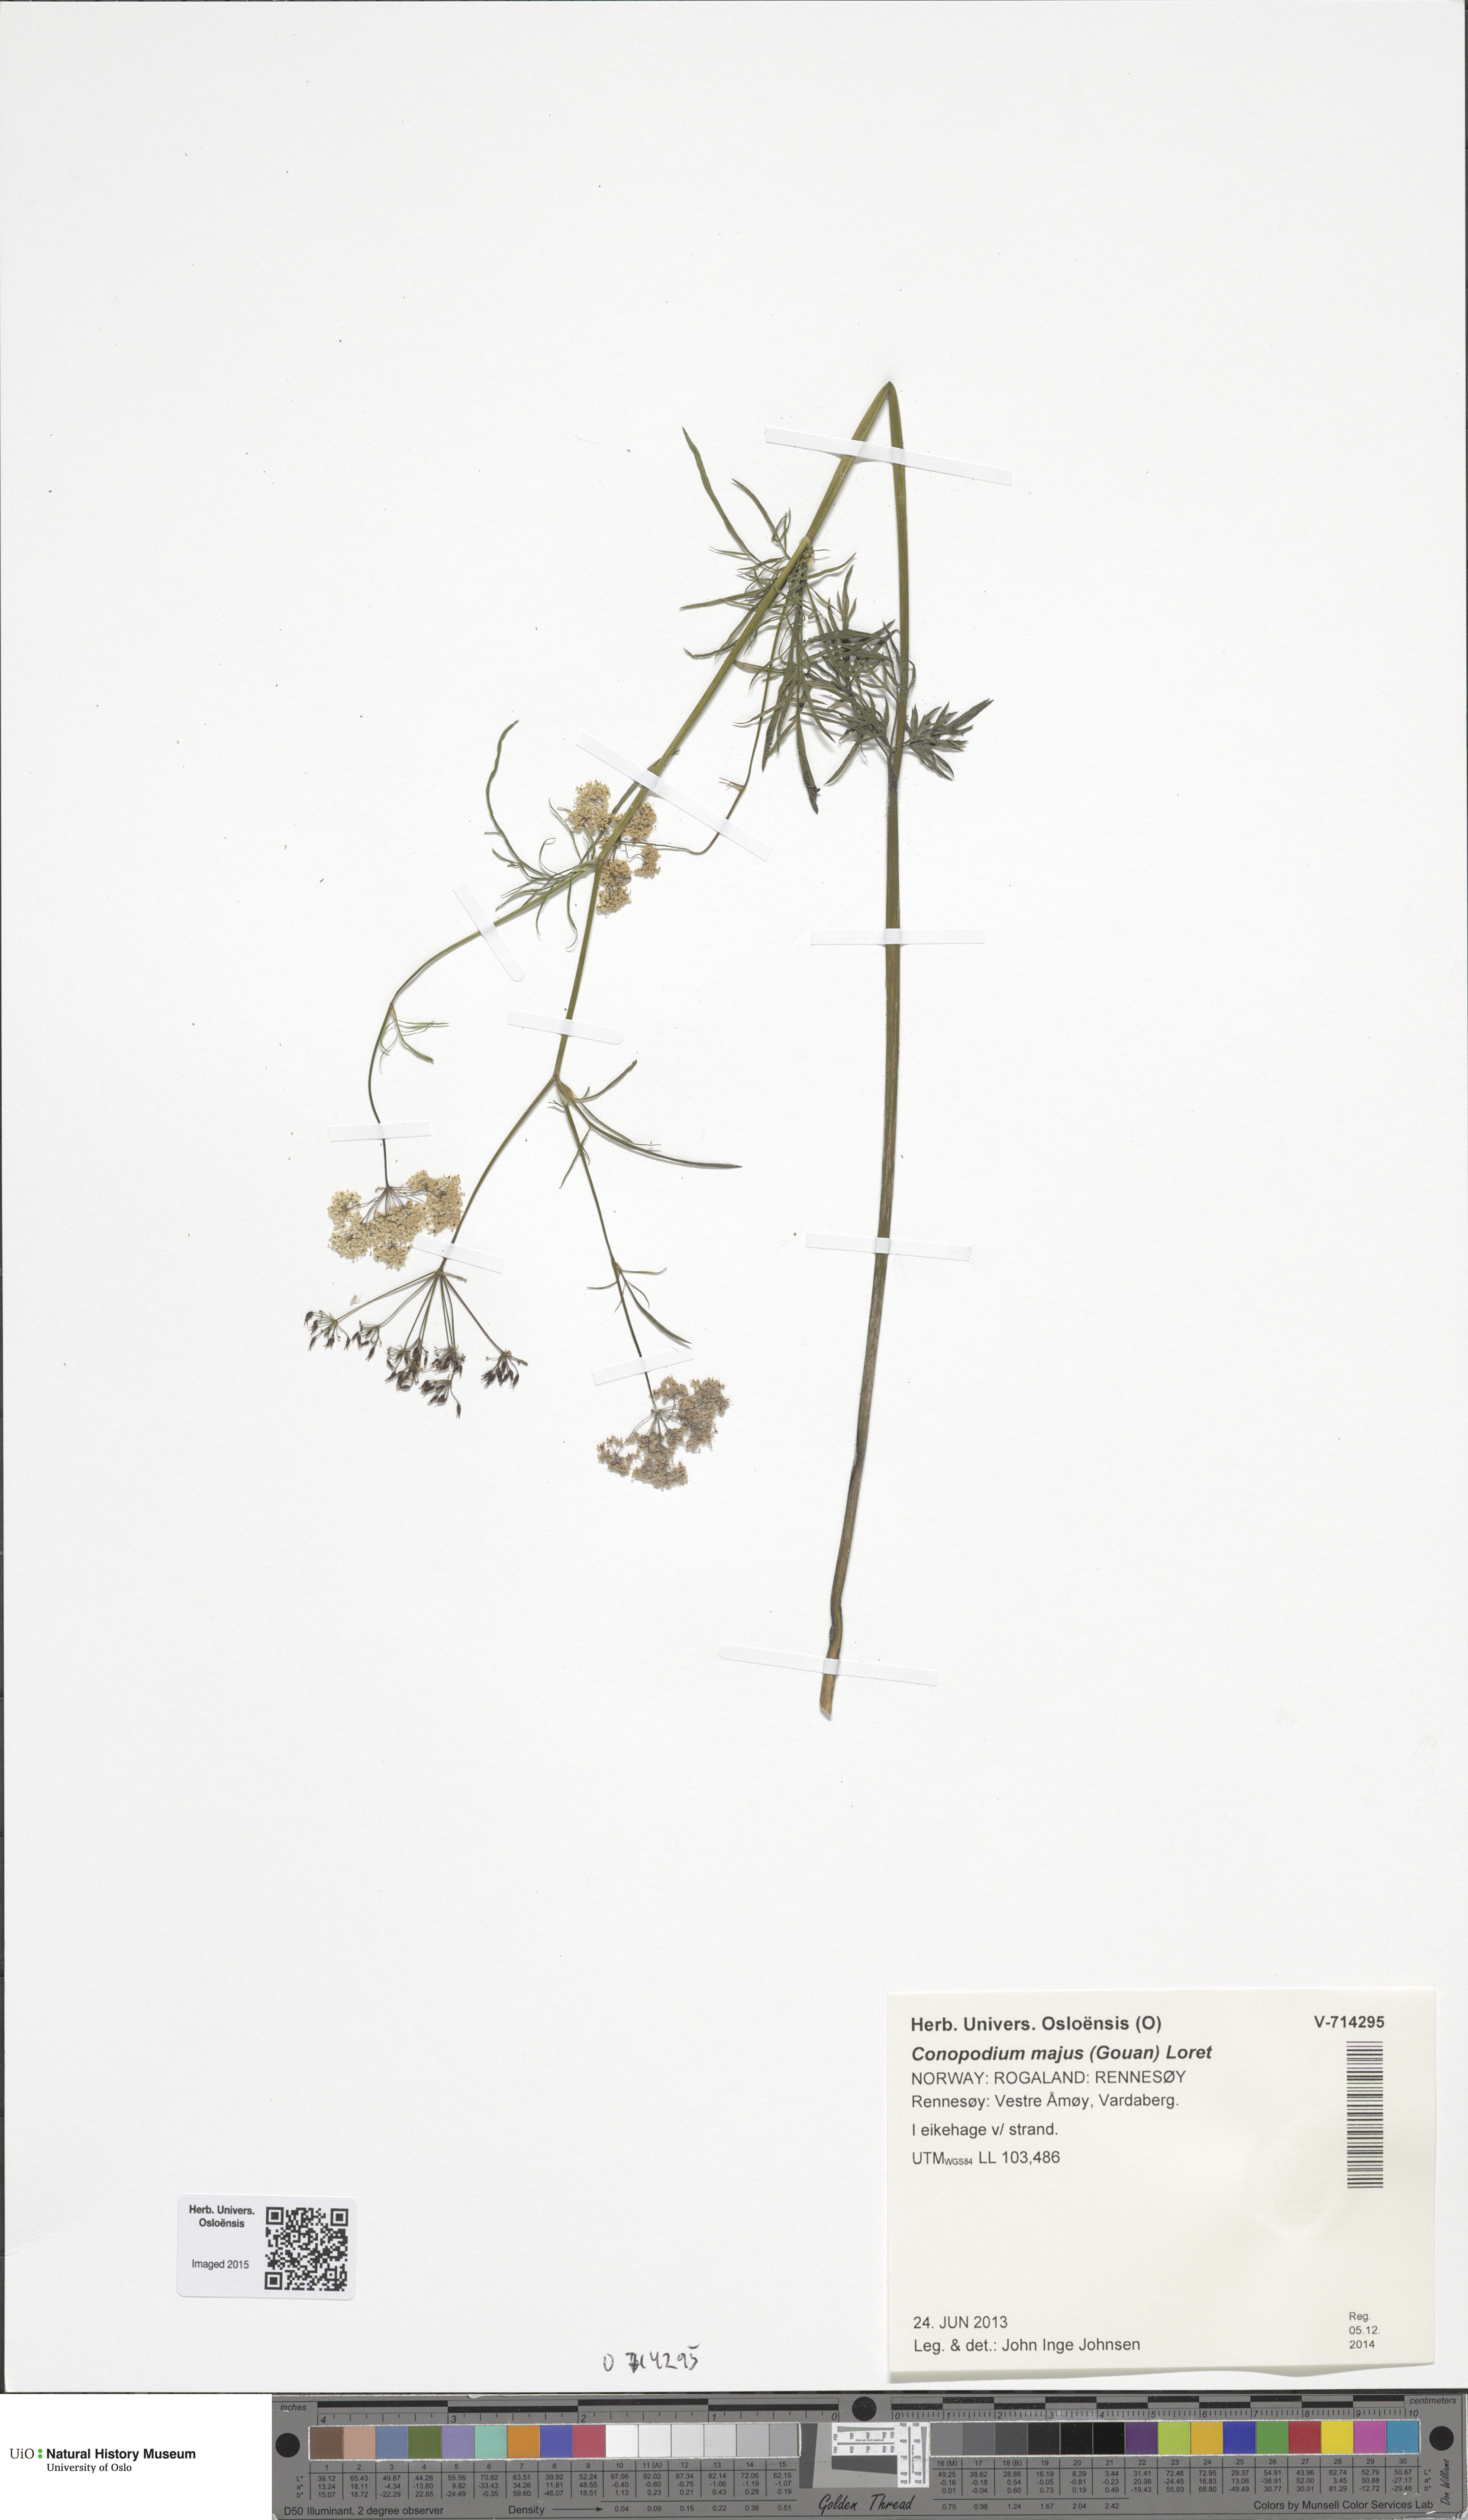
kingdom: Plantae
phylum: Tracheophyta
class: Magnoliopsida
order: Apiales
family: Apiaceae
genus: Conopodium
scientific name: Conopodium majus
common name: Pignut
